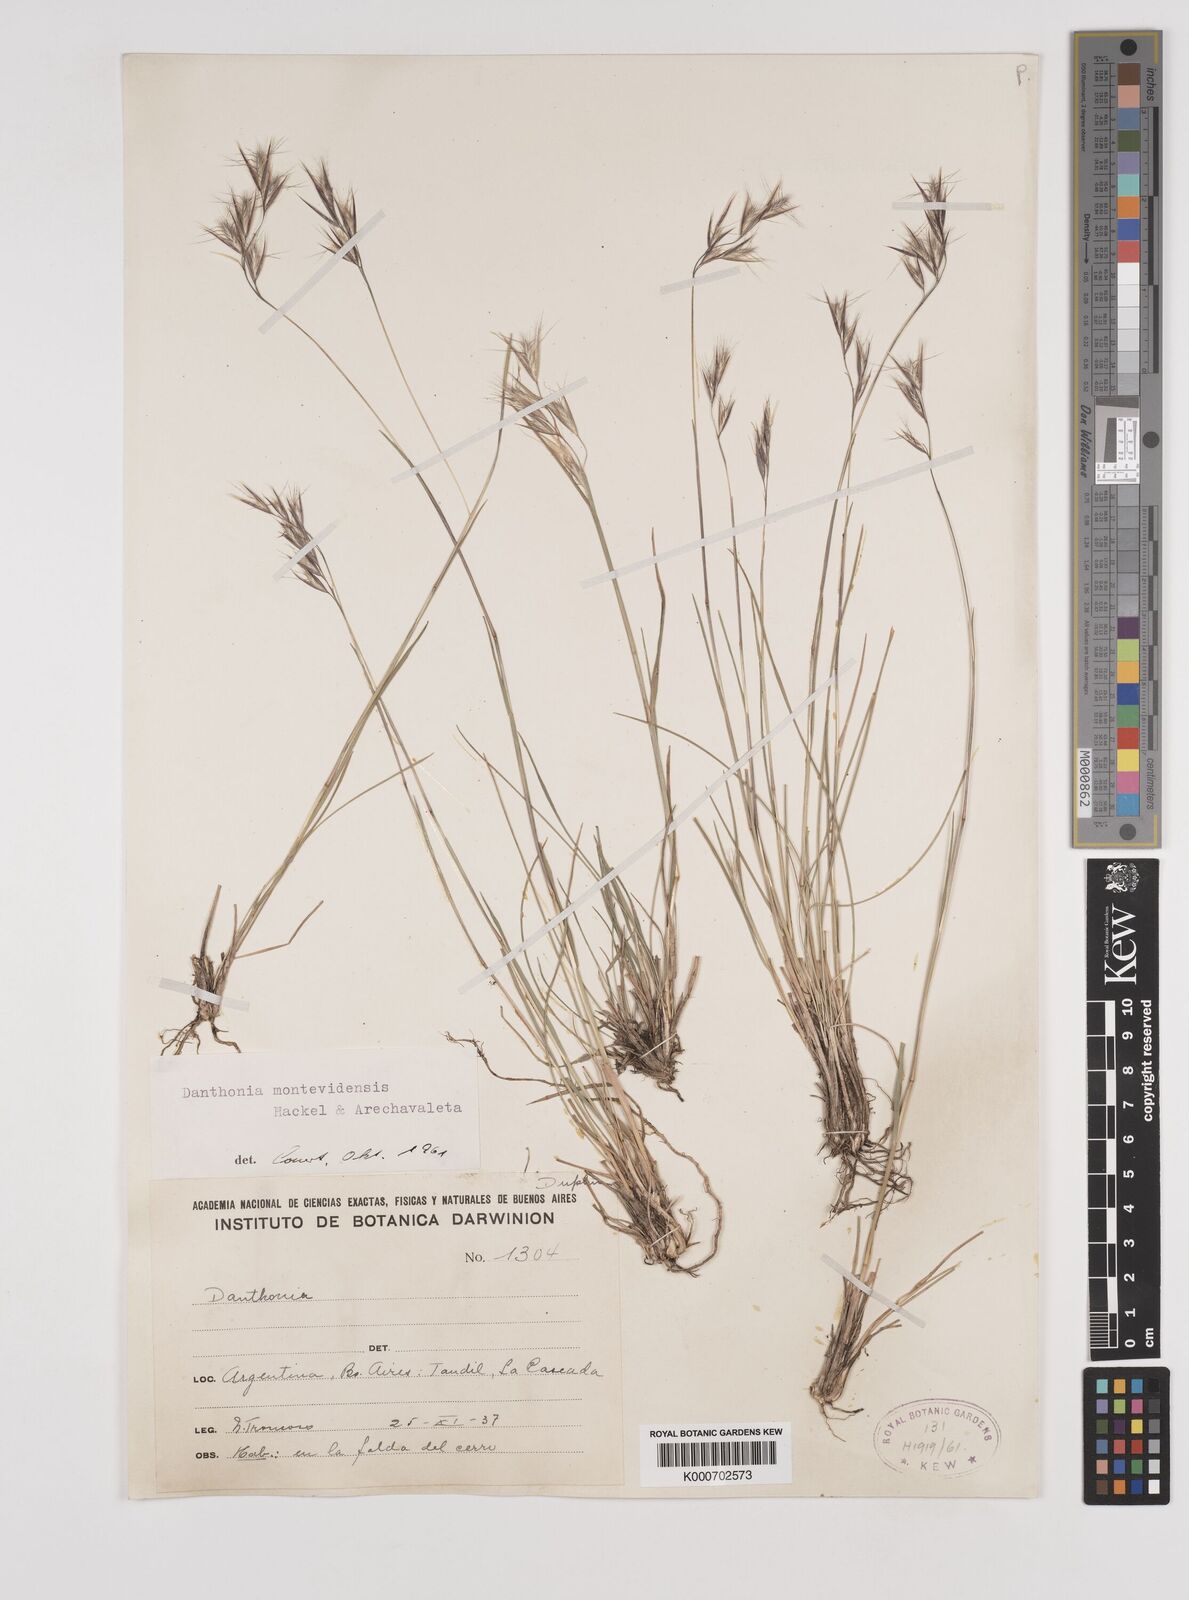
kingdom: Plantae
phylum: Tracheophyta
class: Liliopsida
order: Poales
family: Poaceae
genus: Danthonia
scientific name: Danthonia montevidensis
